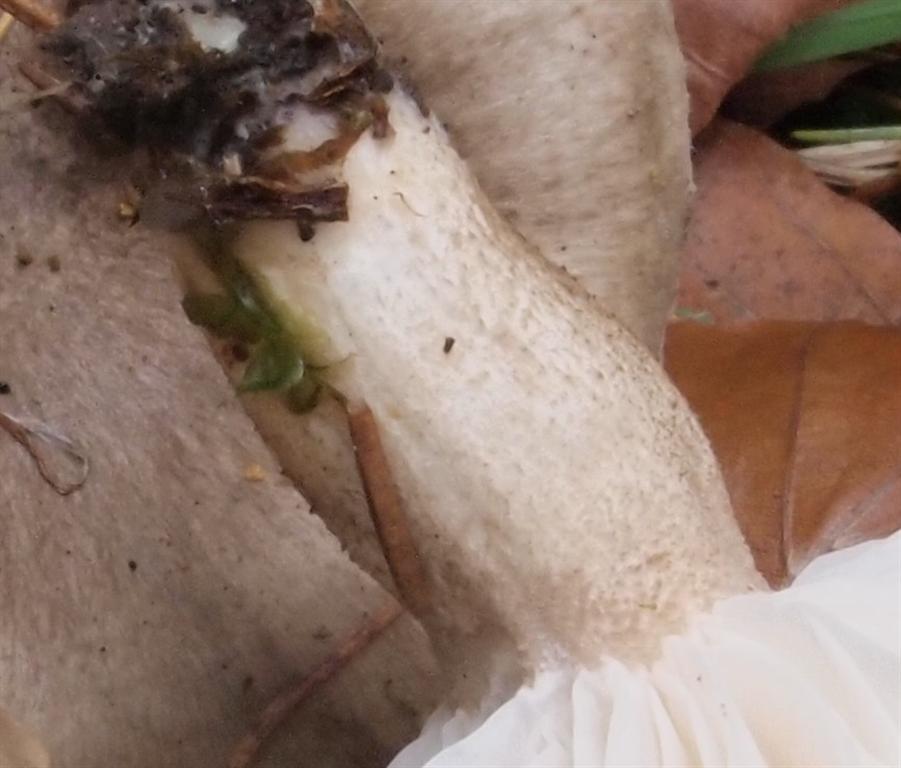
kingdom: Fungi
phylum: Basidiomycota
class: Agaricomycetes
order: Agaricales
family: Hygrophoraceae
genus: Hygrophorus
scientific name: Hygrophorus pustulatus
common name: mørkprikket sneglehat
